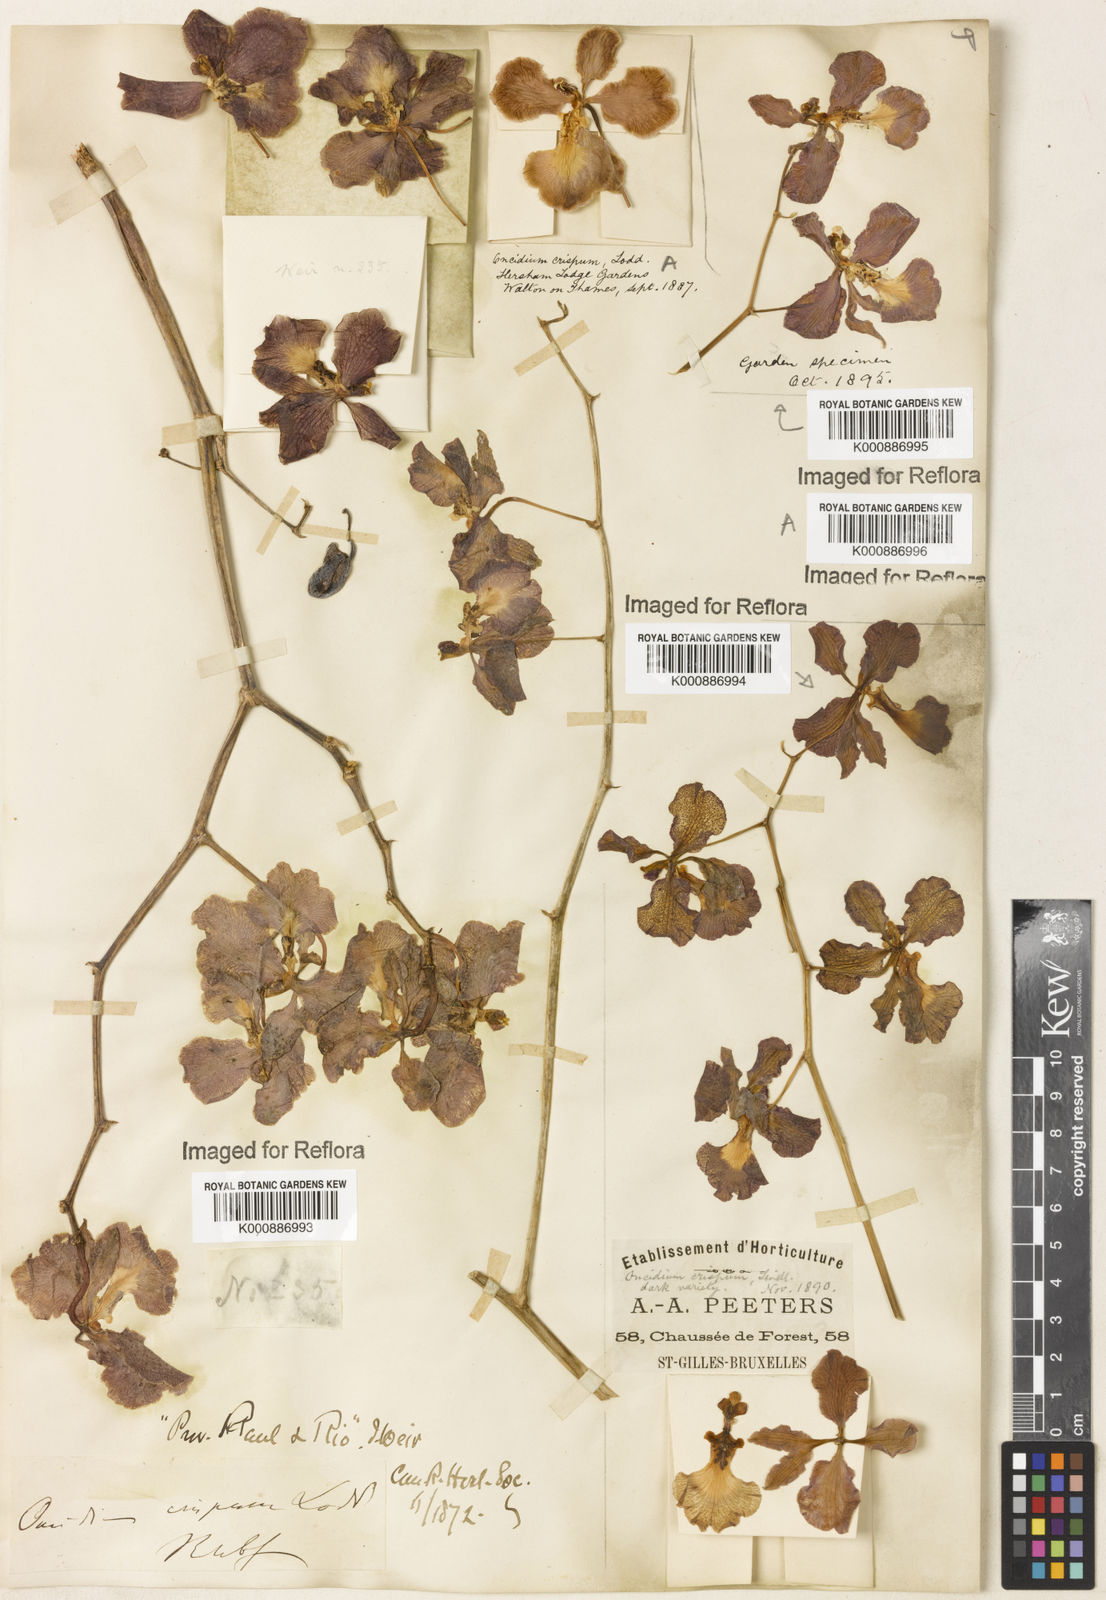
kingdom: Plantae
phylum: Tracheophyta
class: Liliopsida
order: Asparagales
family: Orchidaceae
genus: Gomesa
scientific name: Gomesa praetexta
